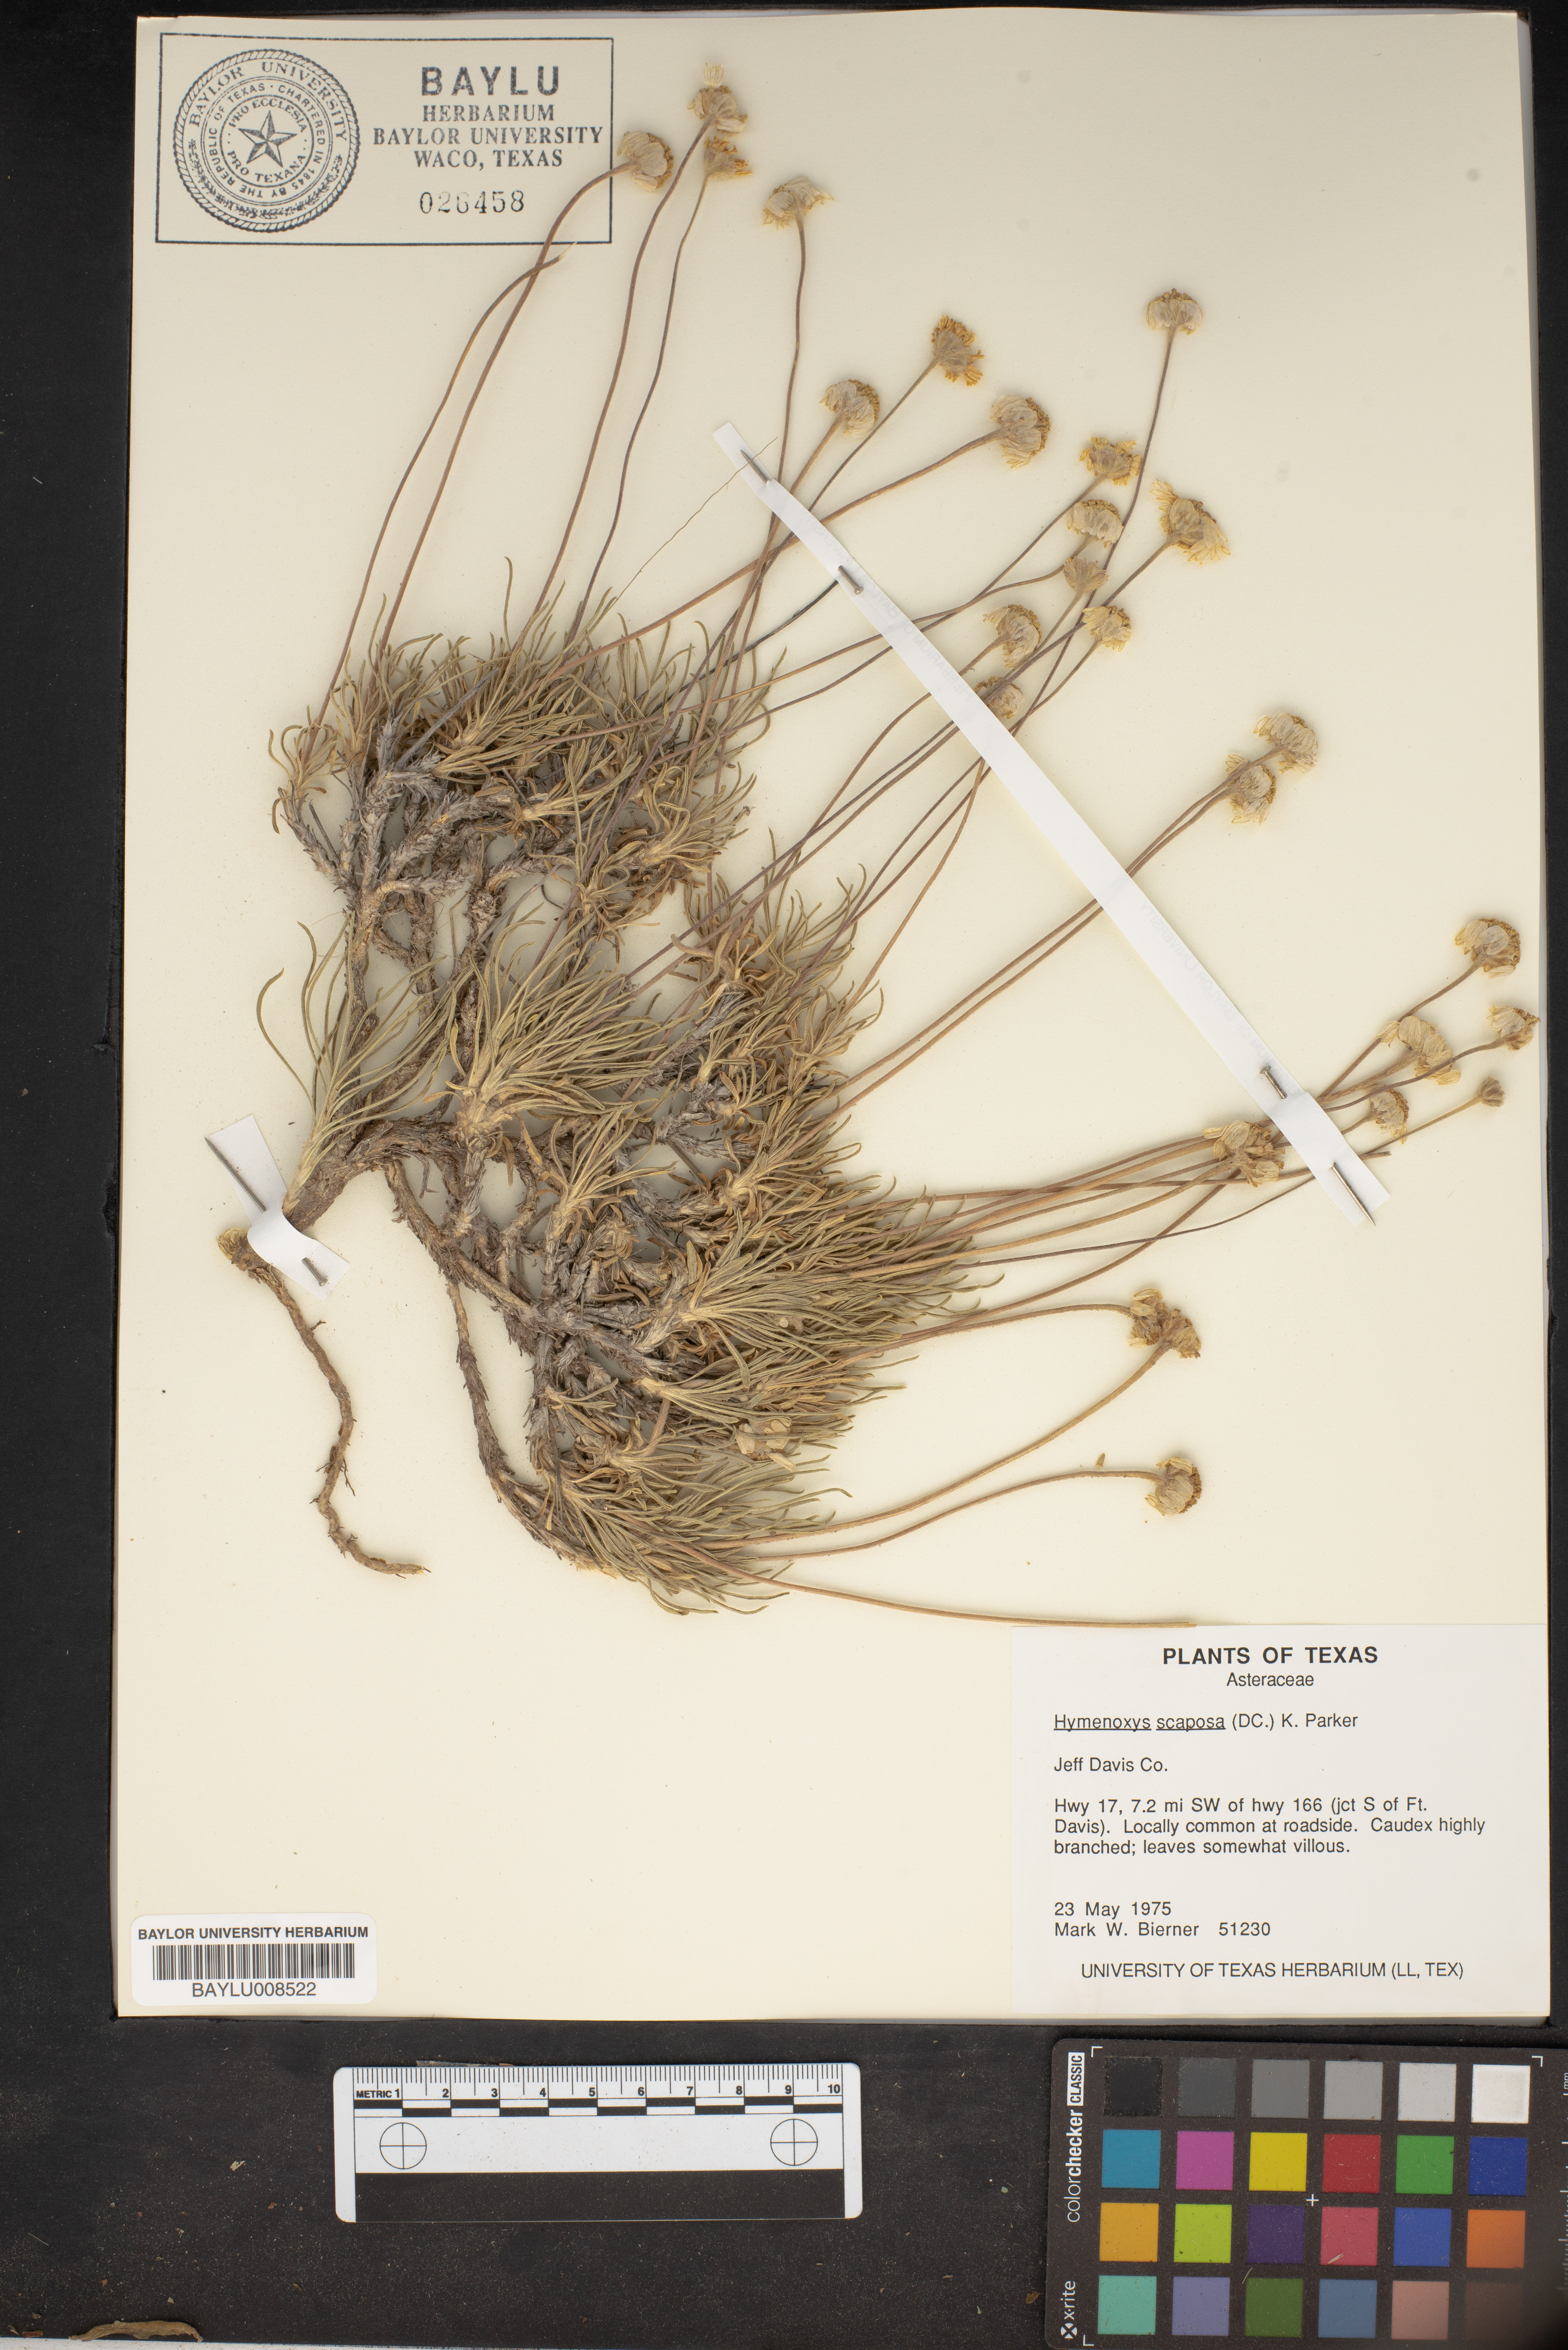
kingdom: Plantae
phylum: Tracheophyta
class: Magnoliopsida
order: Asterales
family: Asteraceae
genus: Tetraneuris
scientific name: Tetraneuris scaposa
